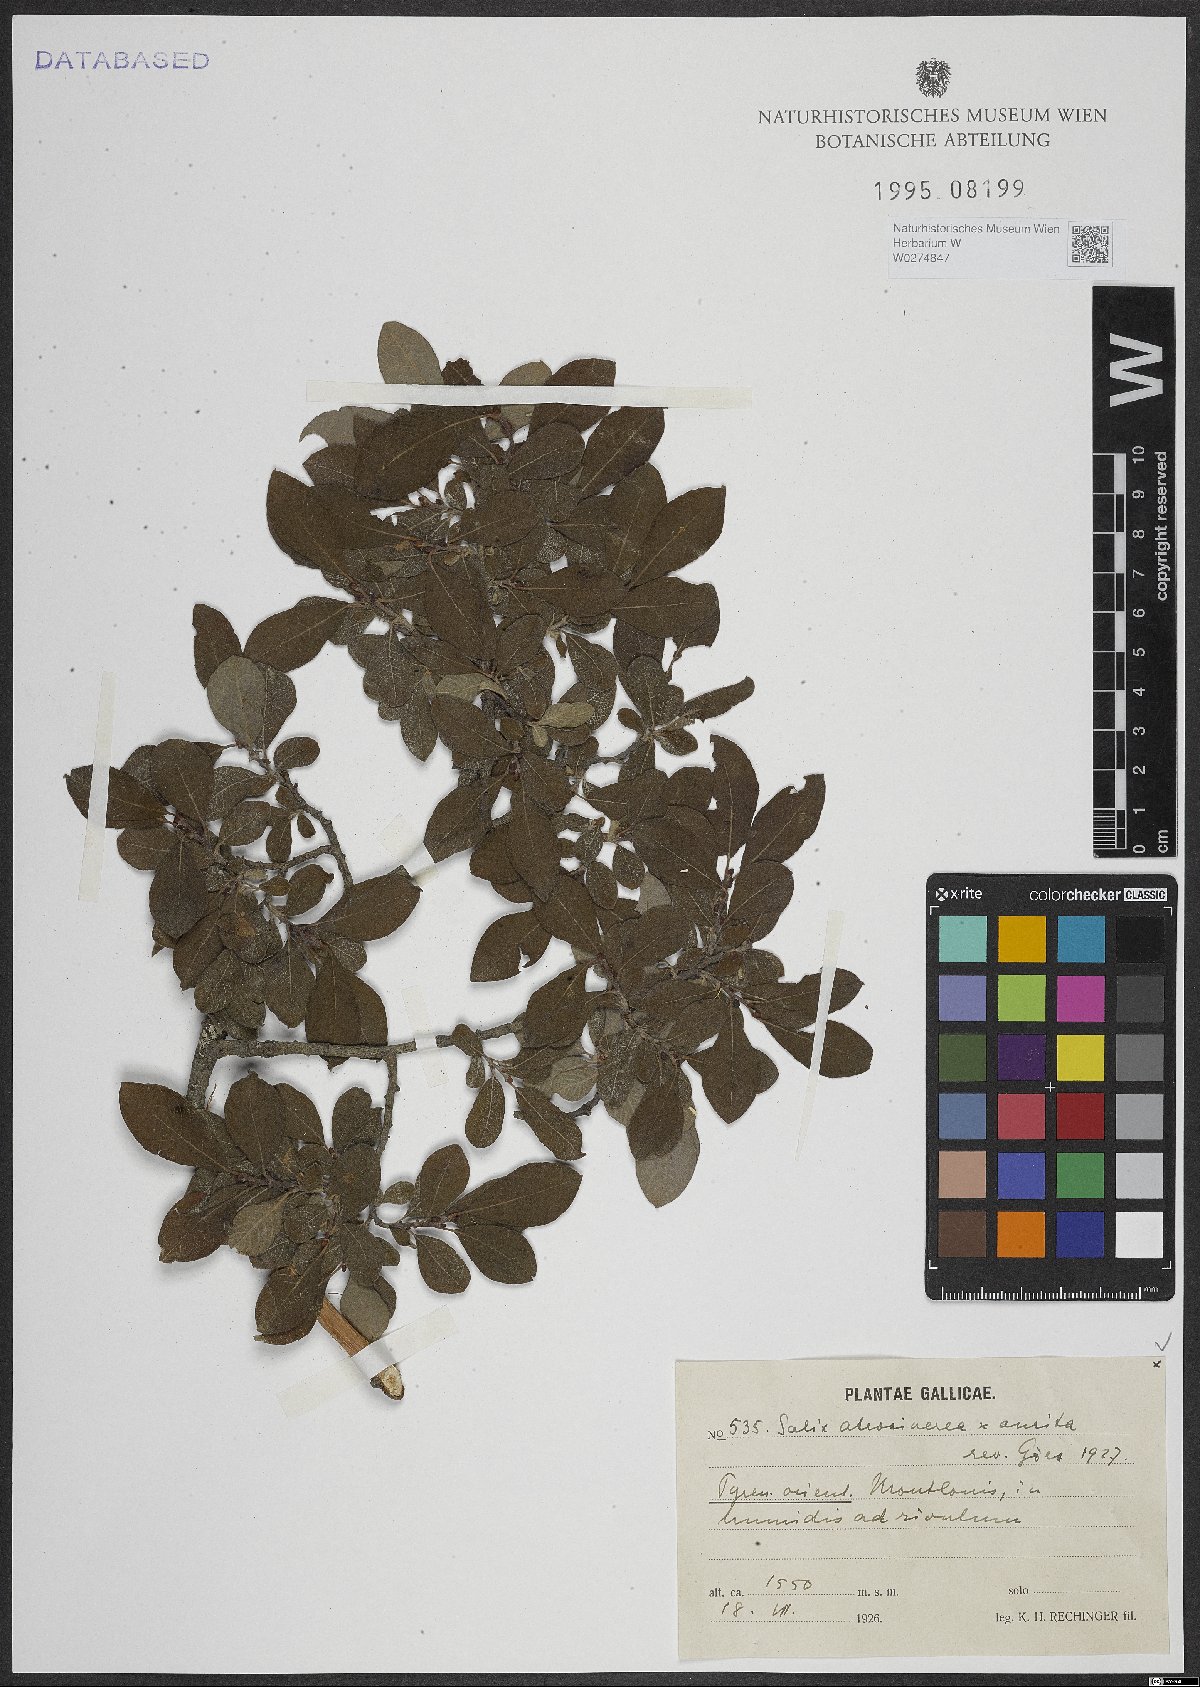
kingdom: Plantae
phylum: Tracheophyta
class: Magnoliopsida
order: Malpighiales
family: Salicaceae
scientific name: Salicaceae
